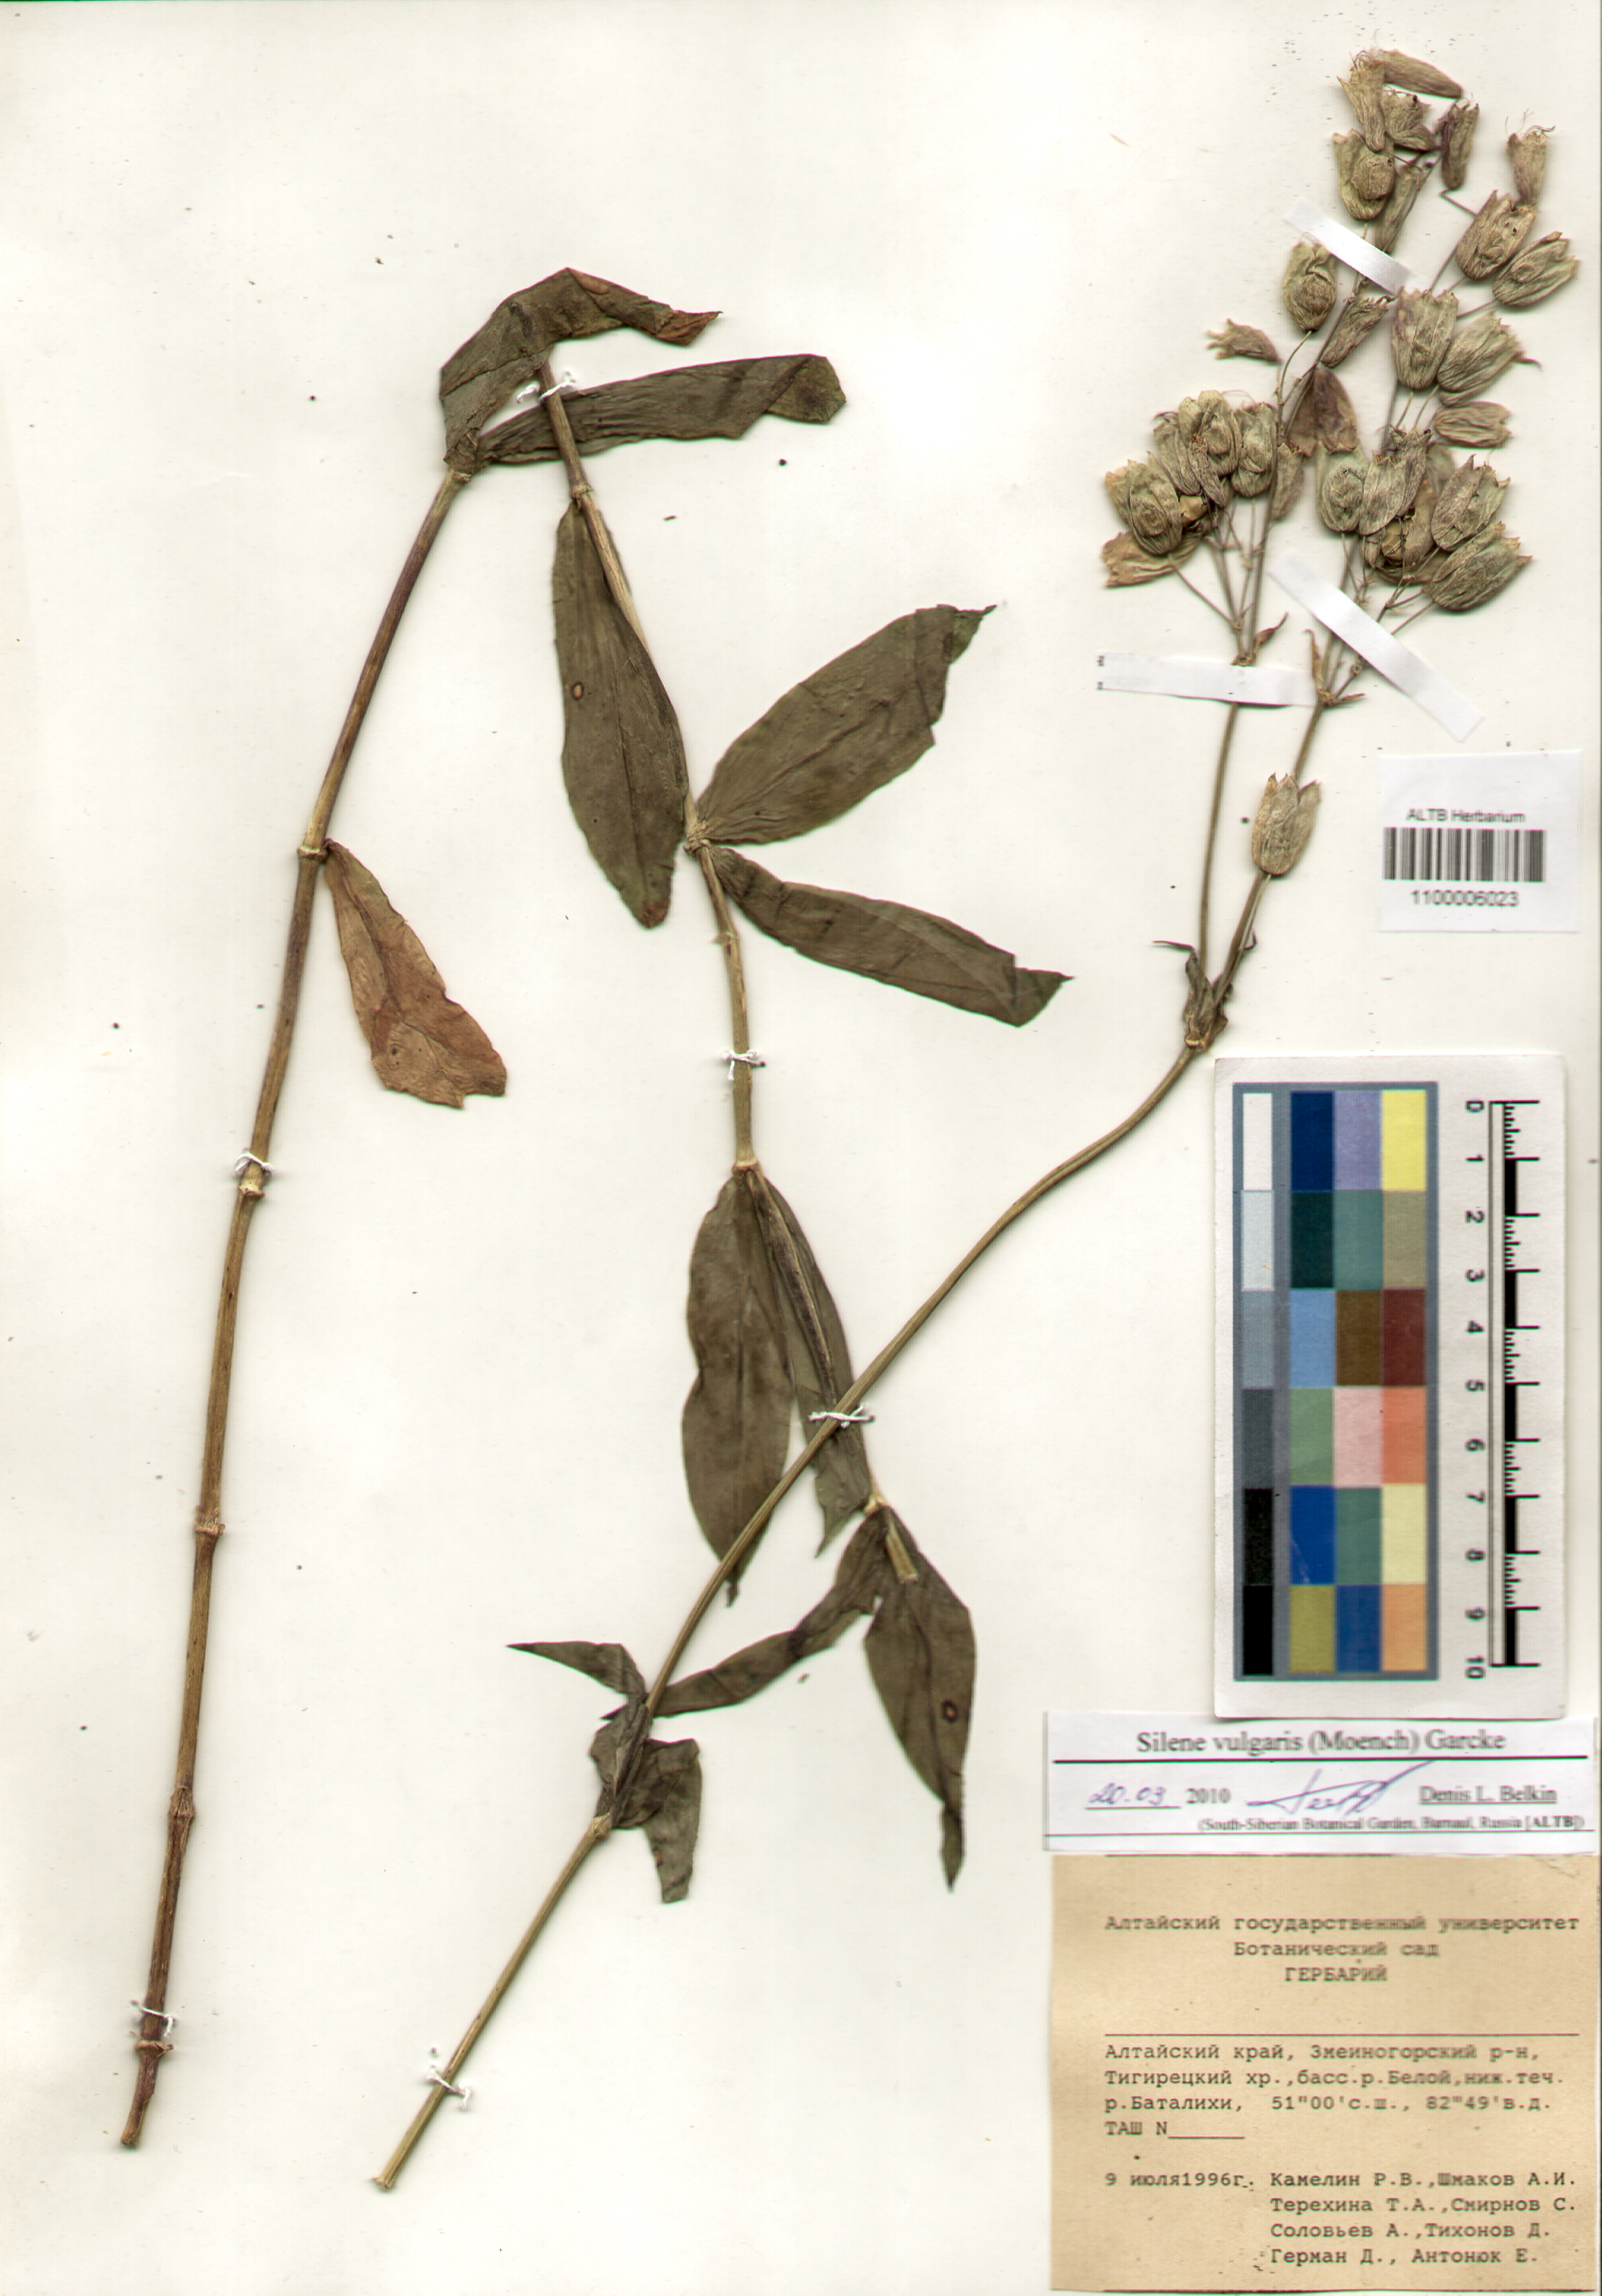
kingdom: Plantae
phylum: Tracheophyta
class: Magnoliopsida
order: Caryophyllales
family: Caryophyllaceae
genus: Silene
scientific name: Silene vulgaris
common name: Bladder campion
